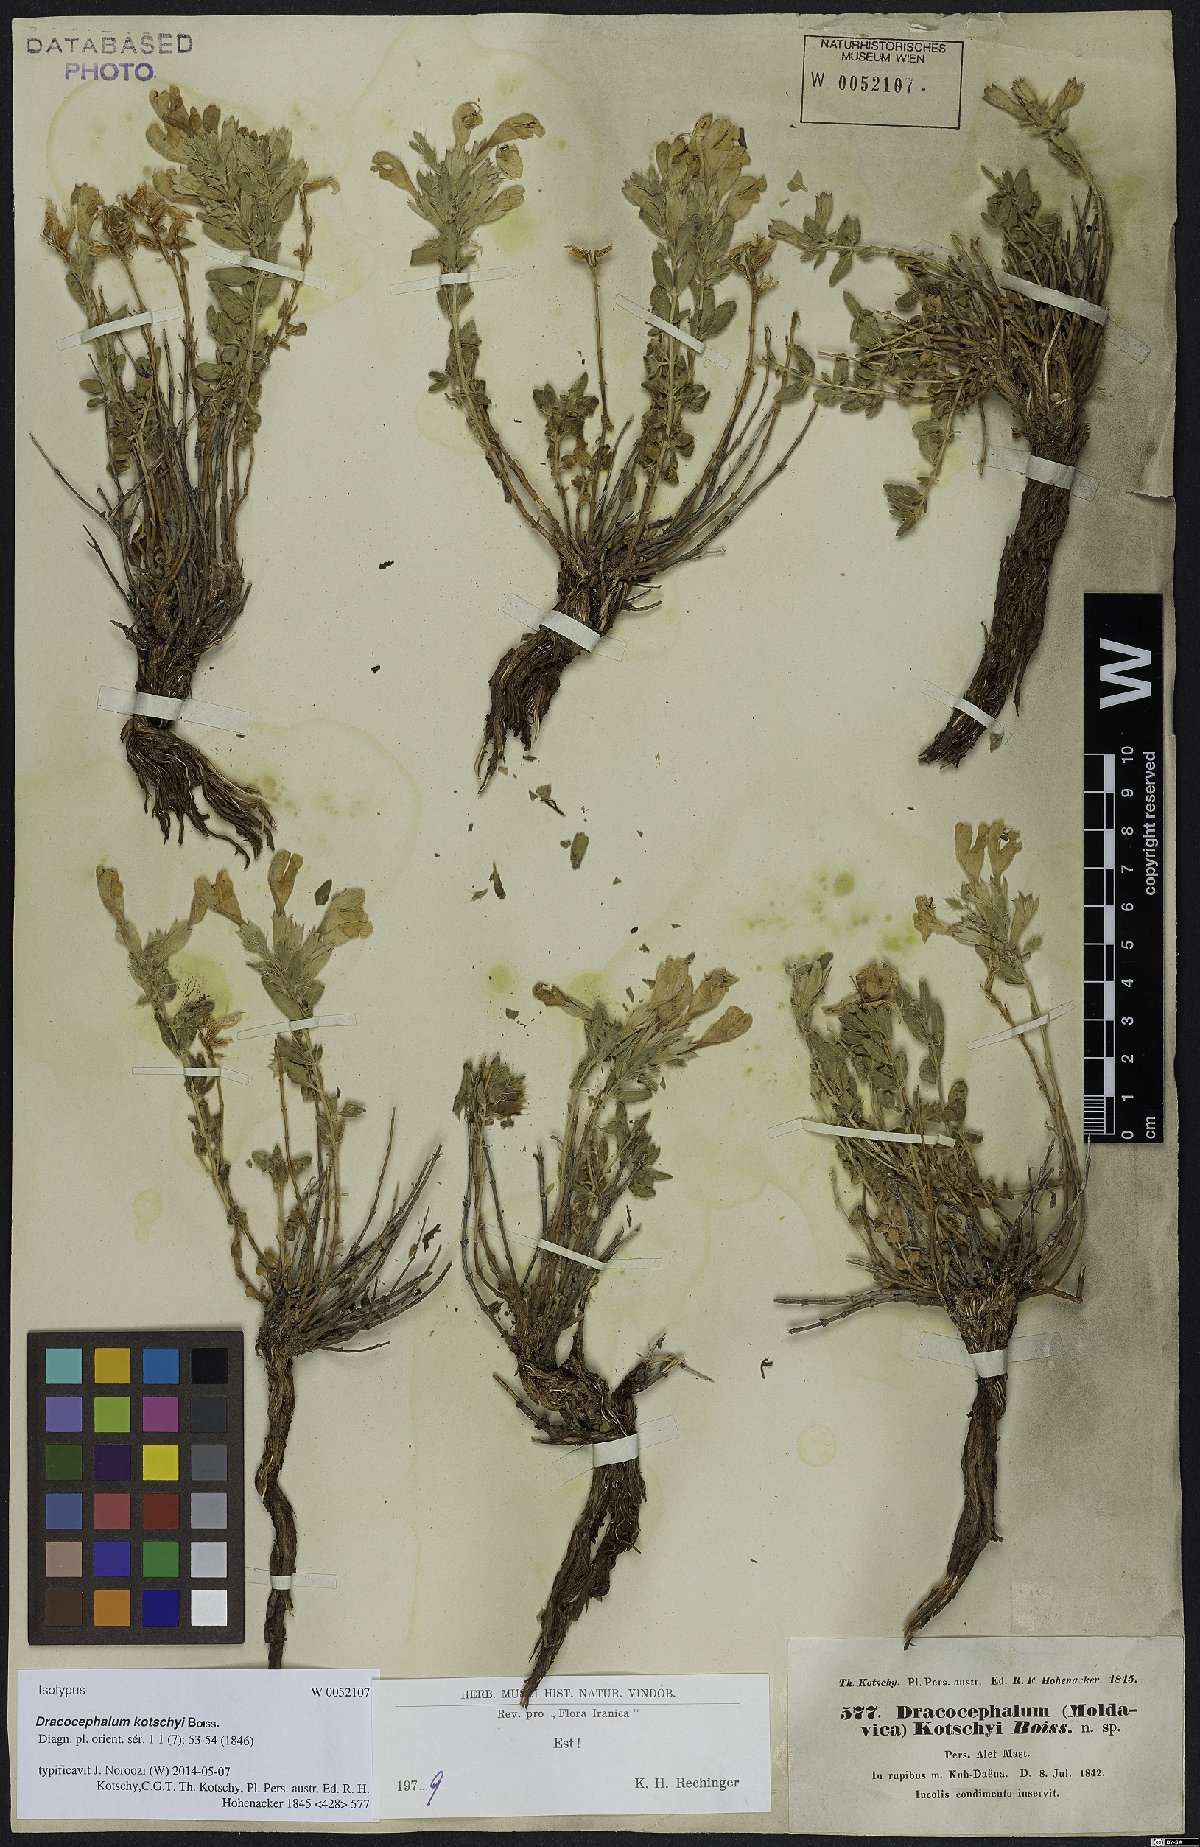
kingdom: Plantae
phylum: Tracheophyta
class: Magnoliopsida
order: Lamiales
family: Lamiaceae
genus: Dracocephalum
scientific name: Dracocephalum kotschyi
